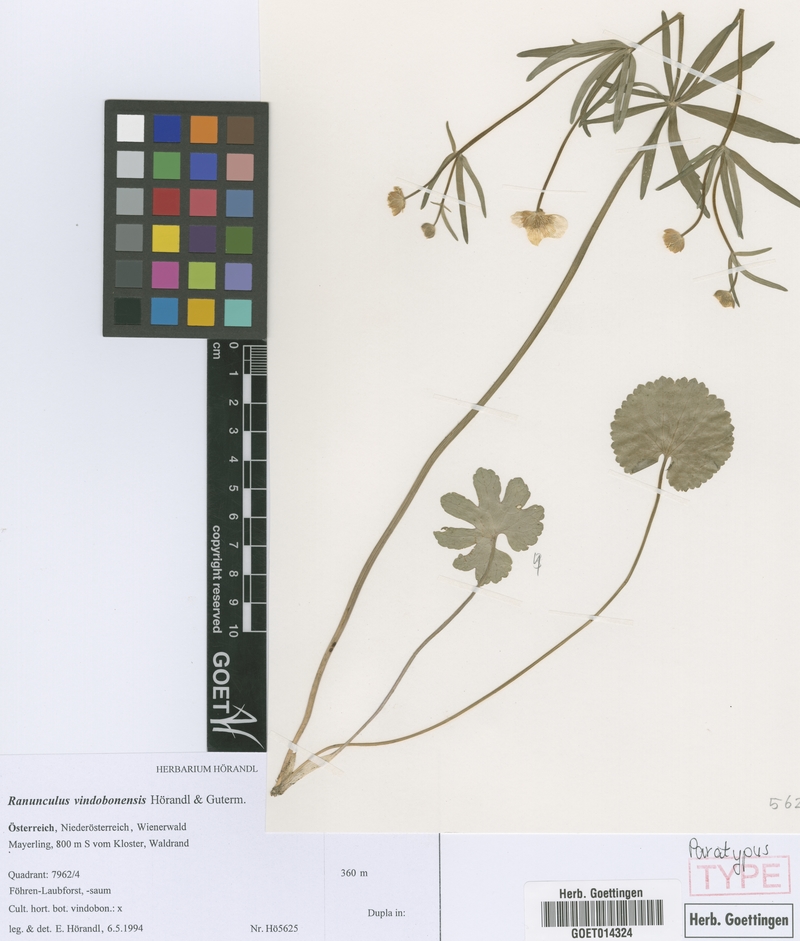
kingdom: Plantae
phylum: Tracheophyta
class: Magnoliopsida
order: Ranunculales
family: Ranunculaceae
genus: Ranunculus
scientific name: Ranunculus vindobonensis
